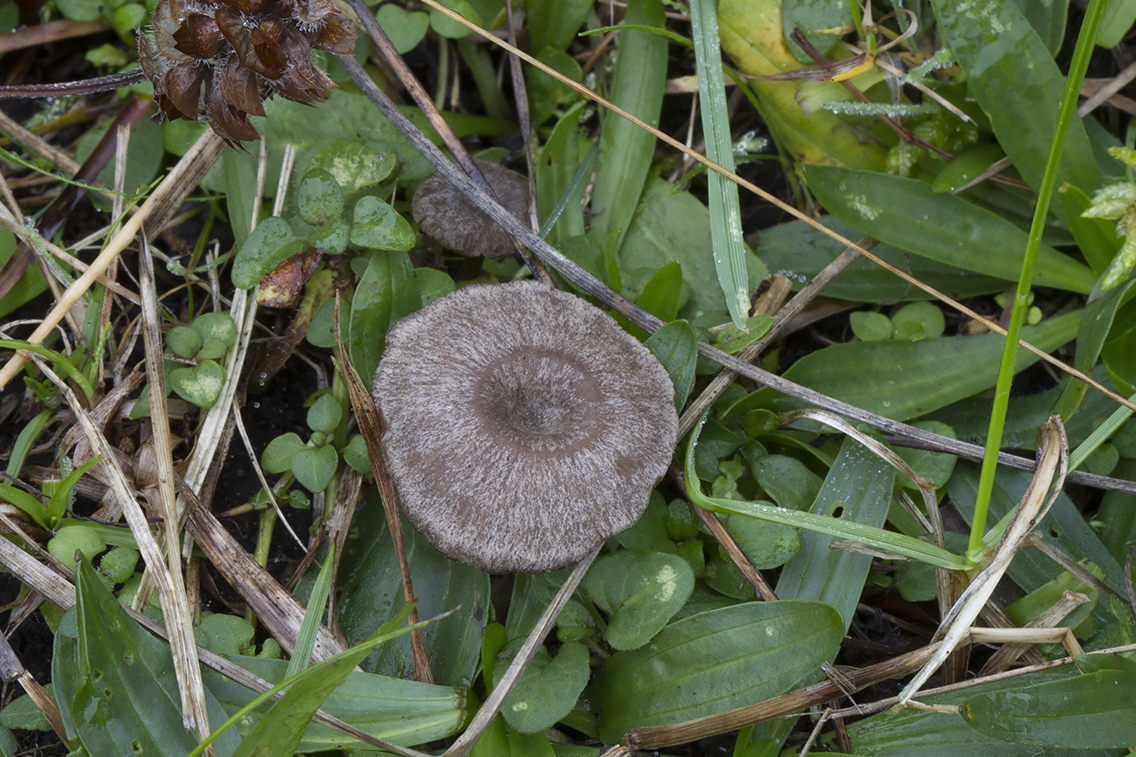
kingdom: Fungi
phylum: Basidiomycota
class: Agaricomycetes
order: Agaricales
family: Entolomataceae
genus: Entoloma
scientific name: Entoloma undatum
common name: bæltet rødblad
